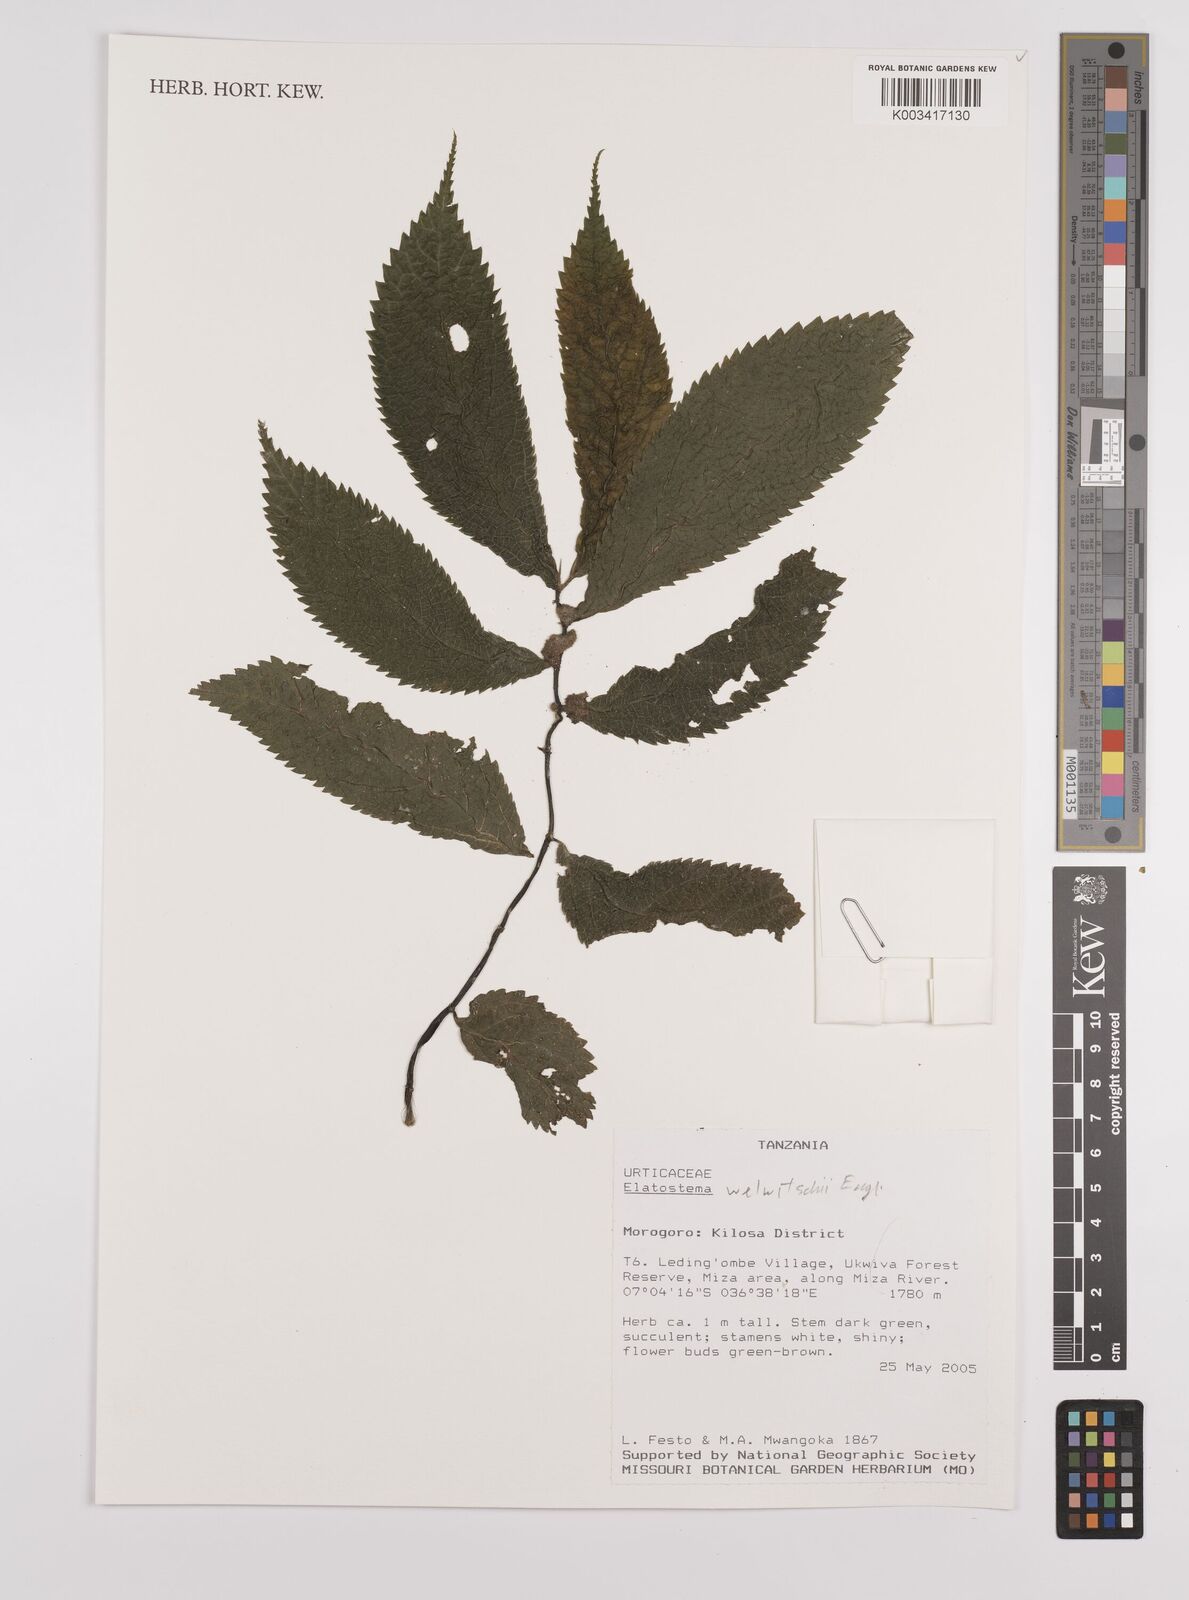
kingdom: Plantae
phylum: Tracheophyta
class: Magnoliopsida
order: Rosales
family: Urticaceae
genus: Elatostema
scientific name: Elatostema welwitschii
